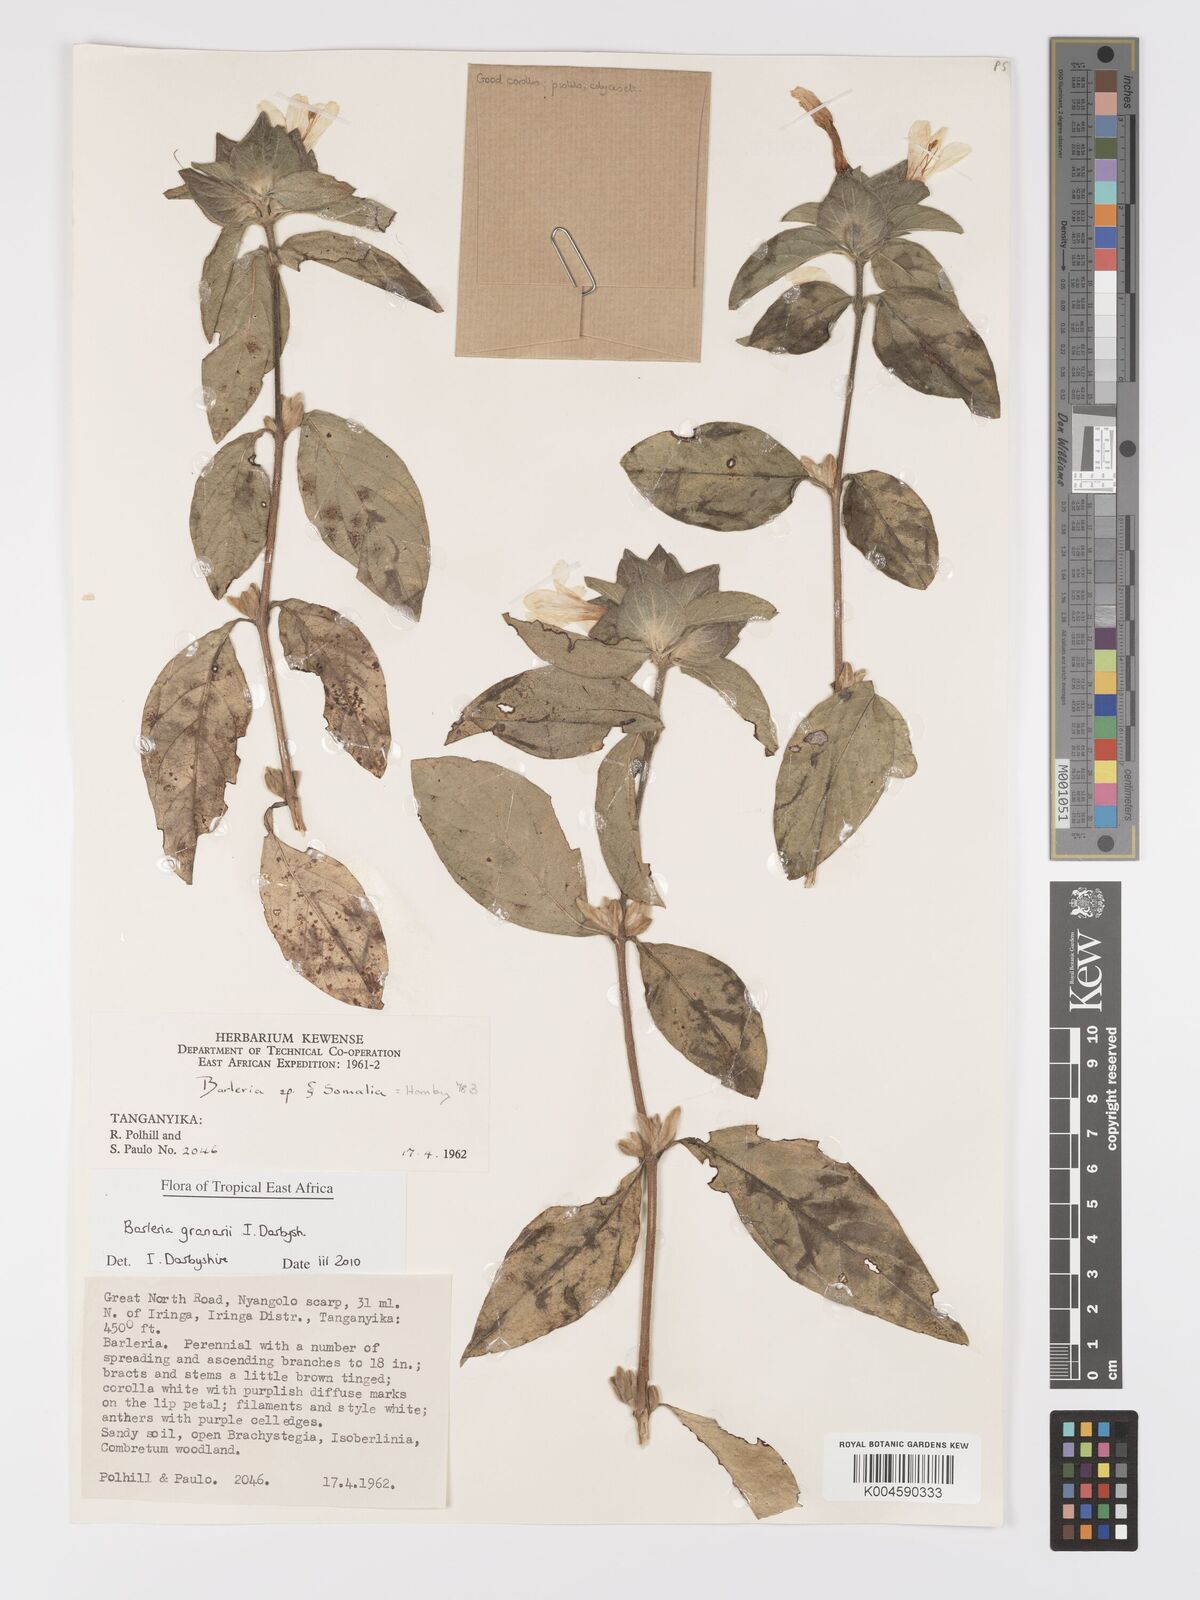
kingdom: Plantae
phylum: Tracheophyta
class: Magnoliopsida
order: Lamiales
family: Acanthaceae
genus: Barleria
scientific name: Barleria granarii
